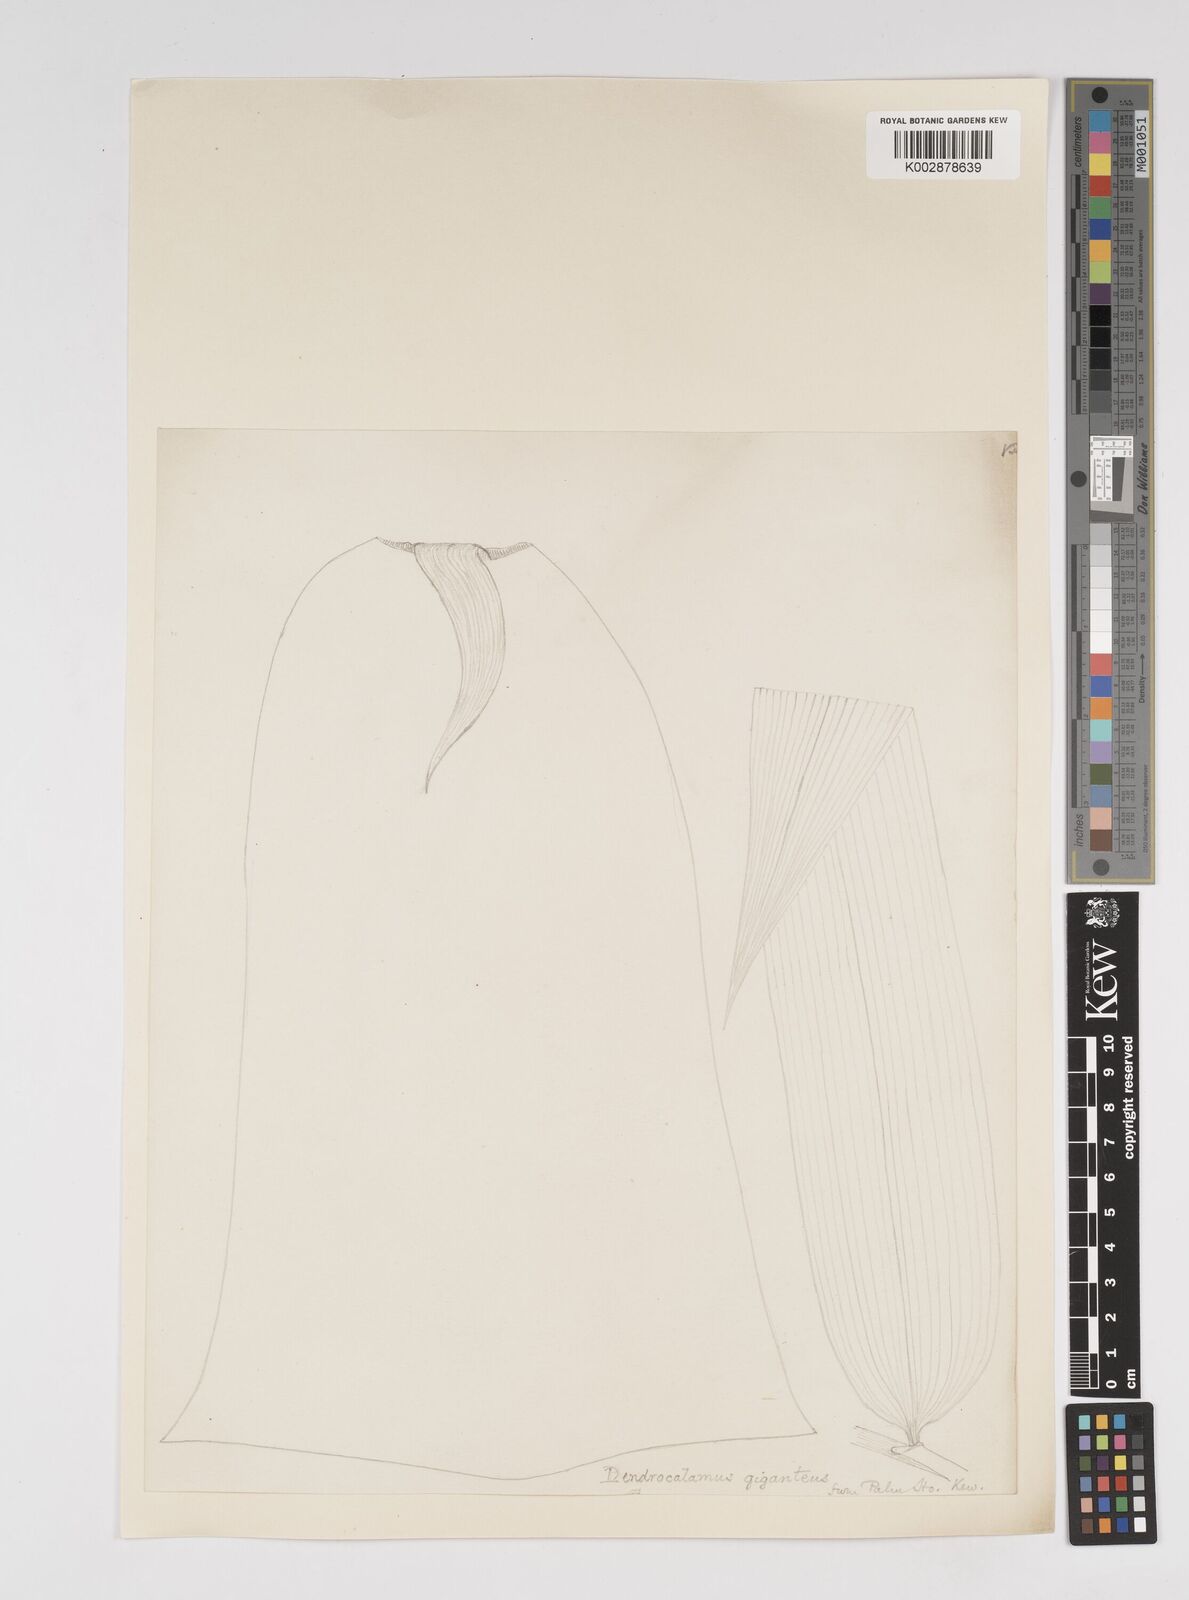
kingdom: Plantae
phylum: Tracheophyta
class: Liliopsida
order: Poales
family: Poaceae
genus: Dendrocalamus
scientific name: Dendrocalamus giganteus
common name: Giant bamboo
